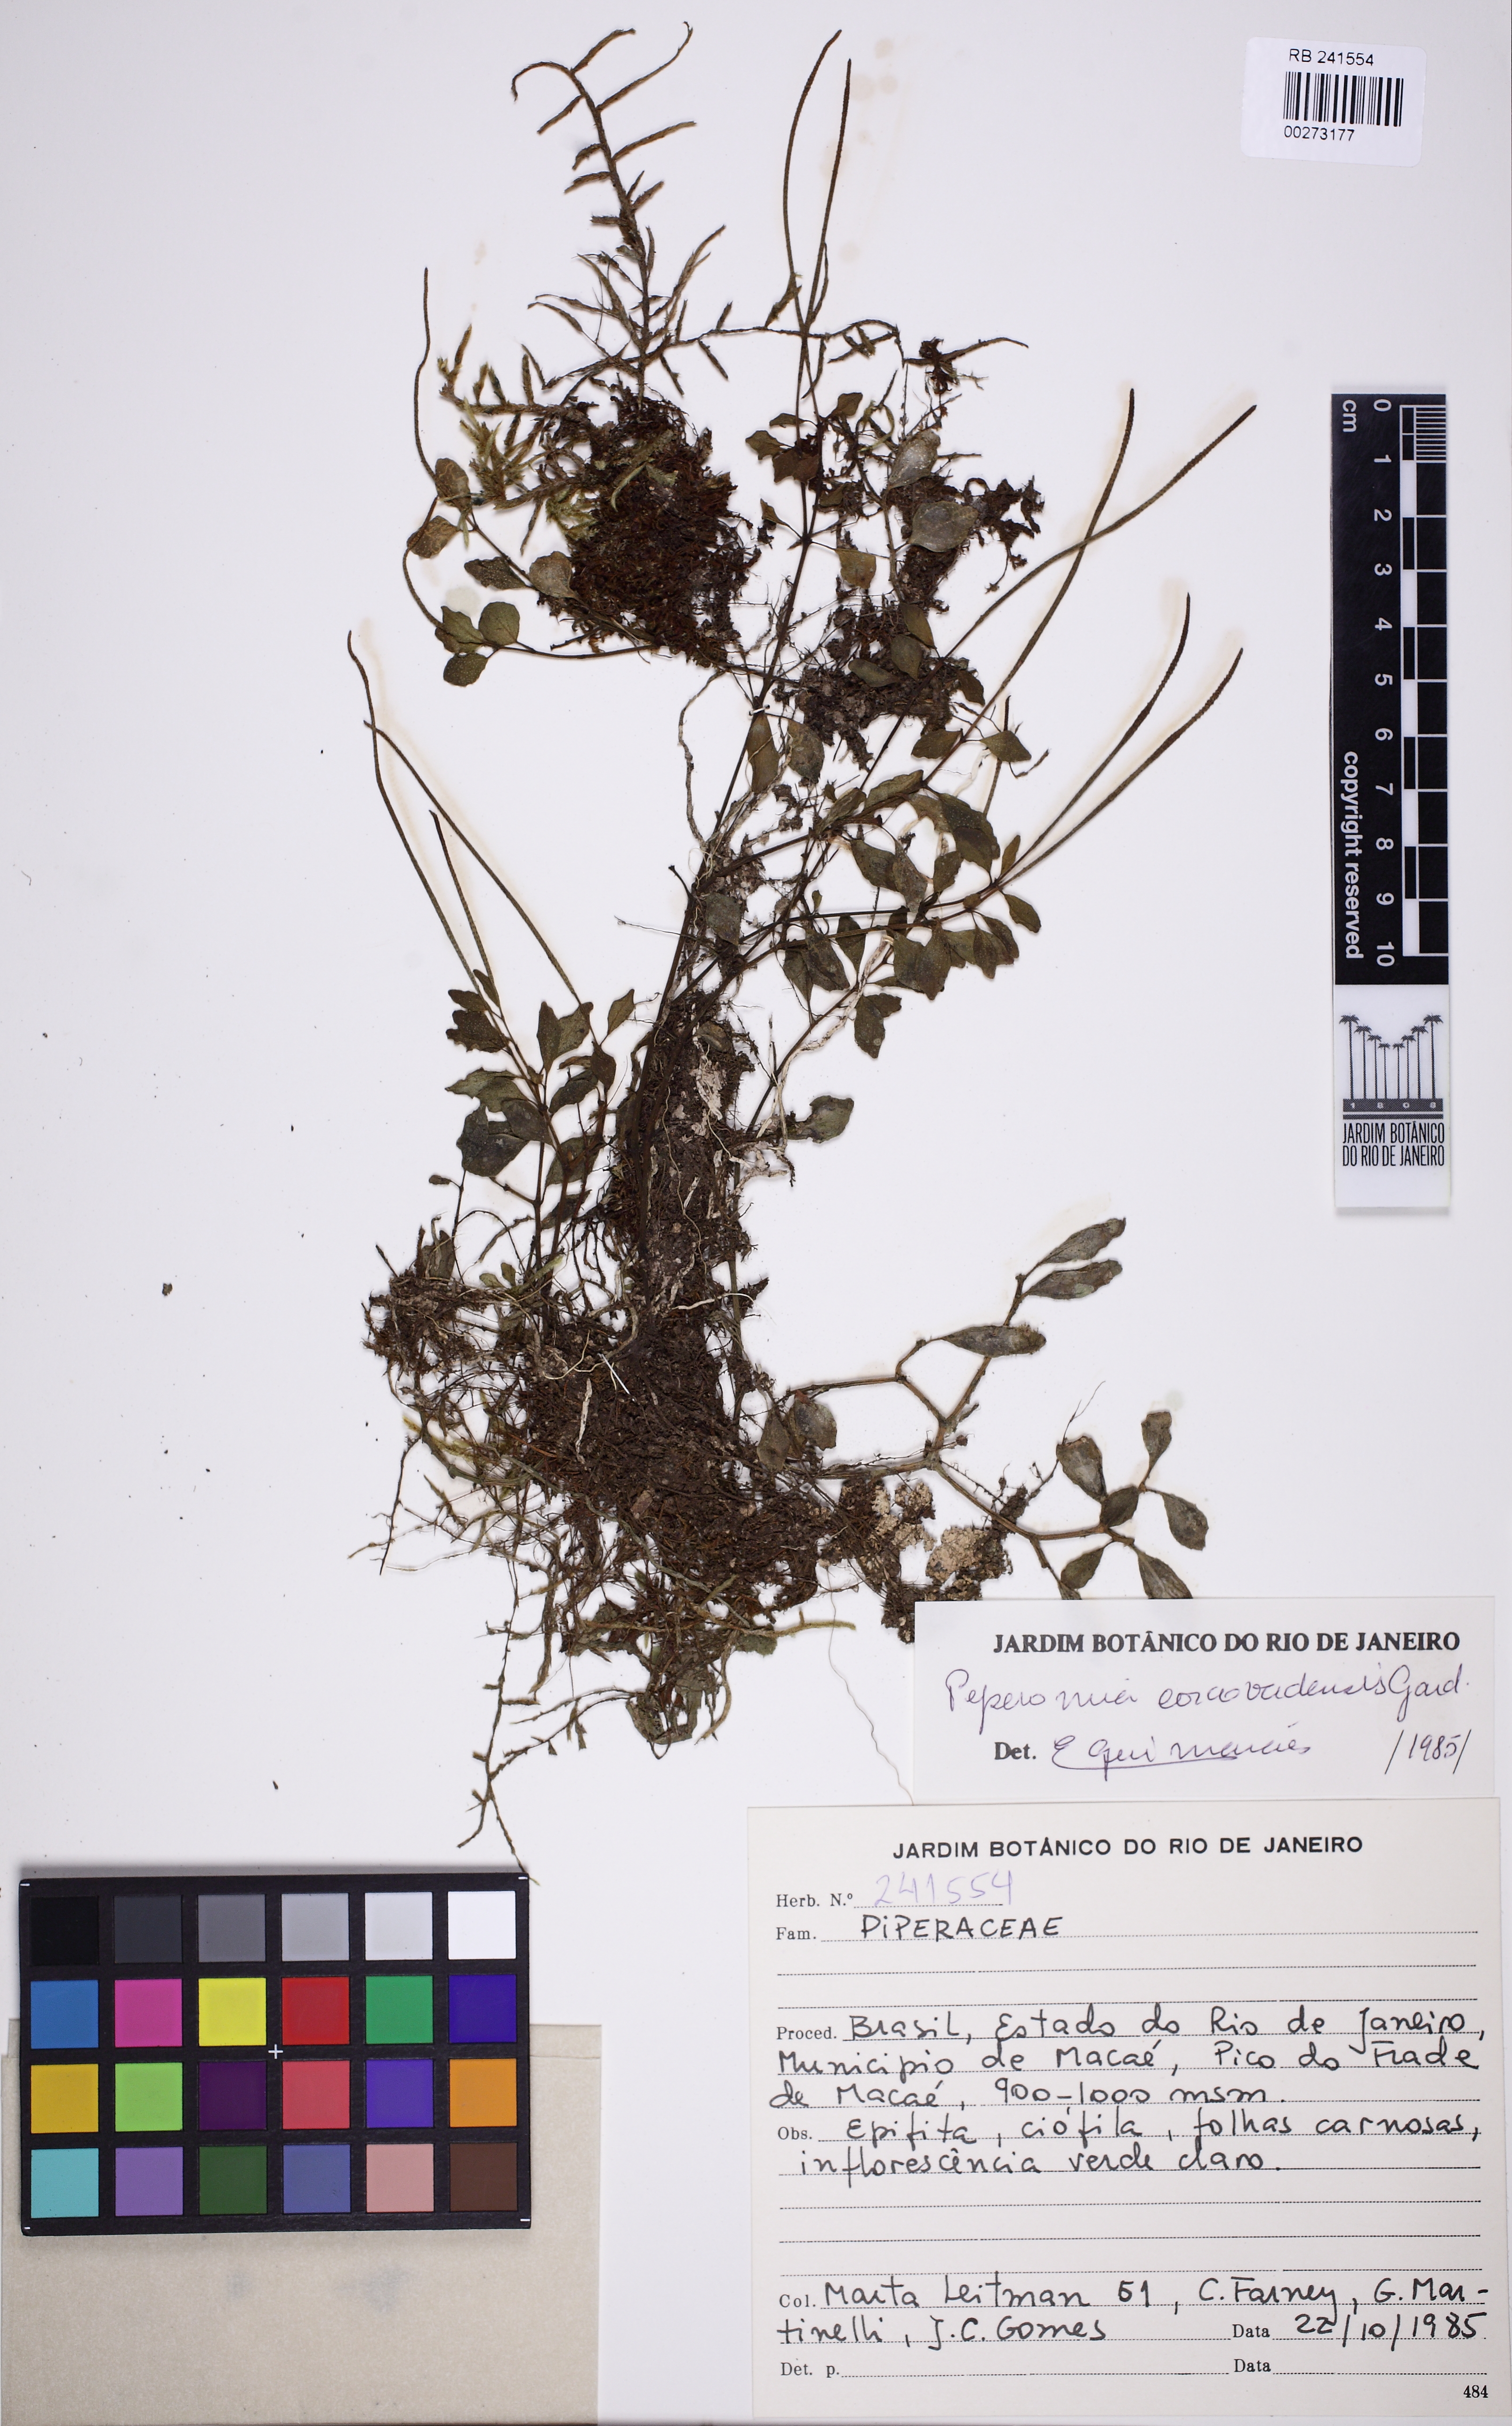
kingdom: Plantae
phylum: Tracheophyta
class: Magnoliopsida
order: Piperales
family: Piperaceae
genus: Peperomia
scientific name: Peperomia corcovadensis
